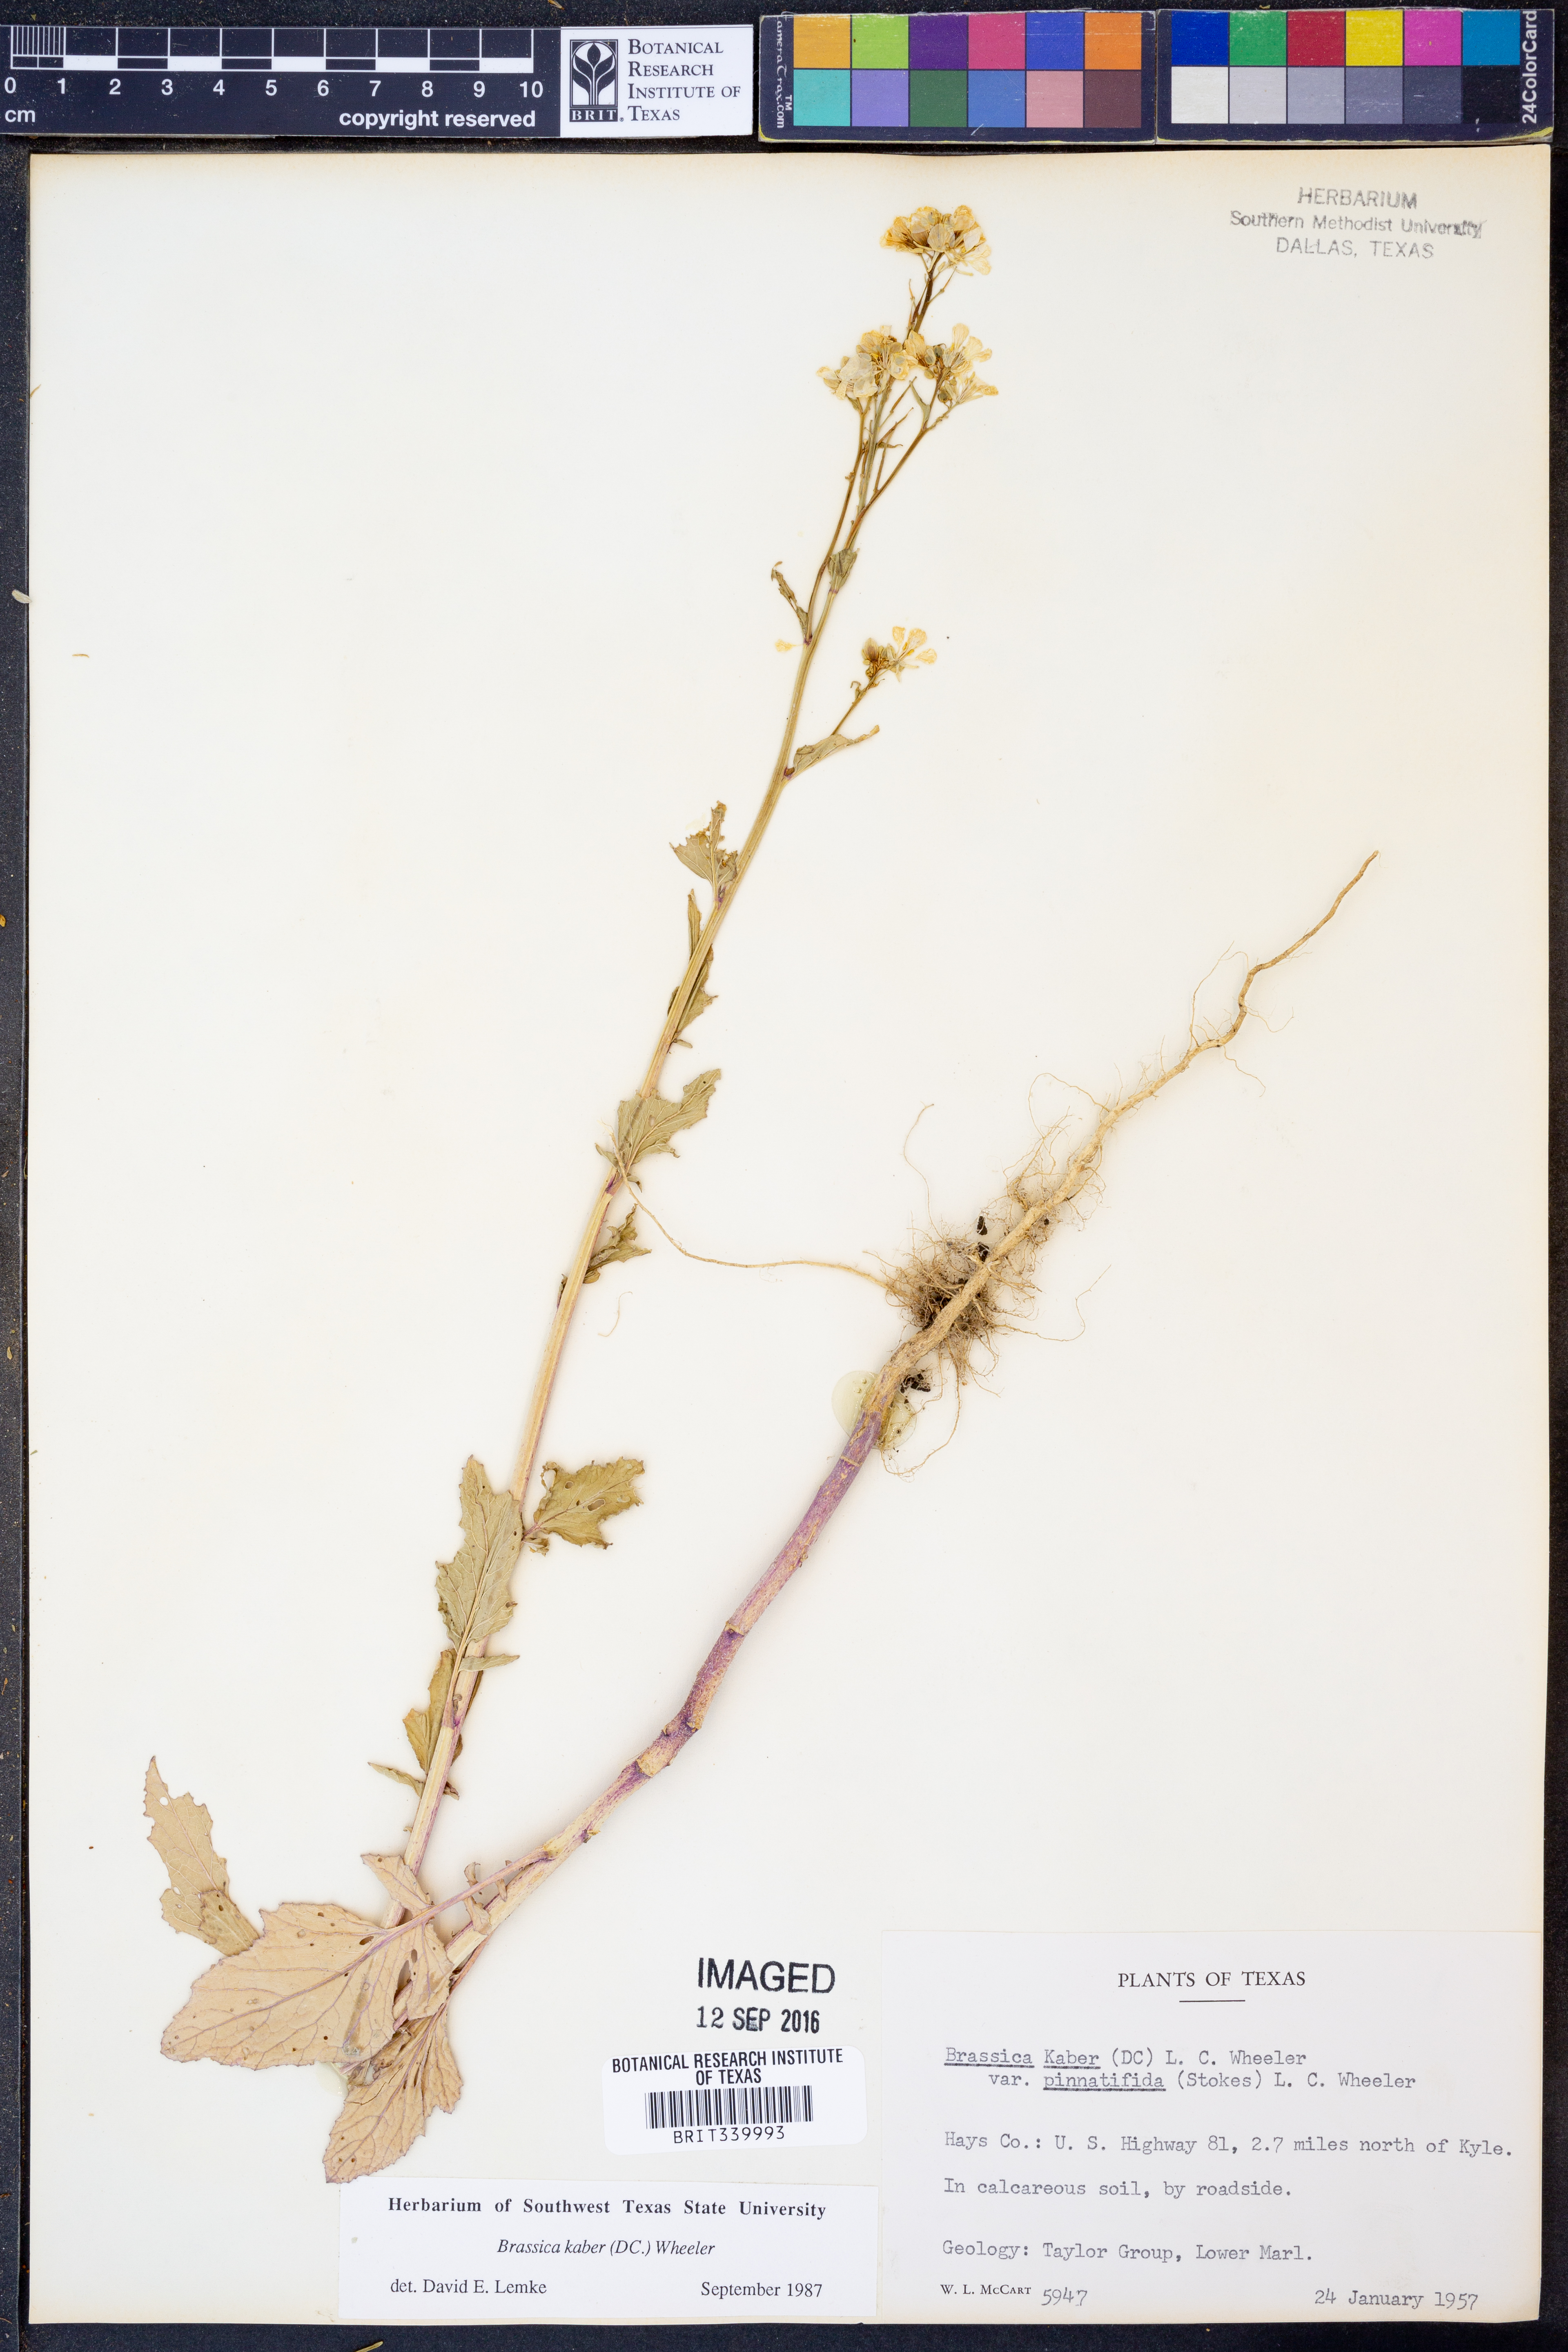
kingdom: Plantae
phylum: Tracheophyta
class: Magnoliopsida
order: Brassicales
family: Brassicaceae
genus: Sinapis
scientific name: Sinapis arvensis
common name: Charlock
